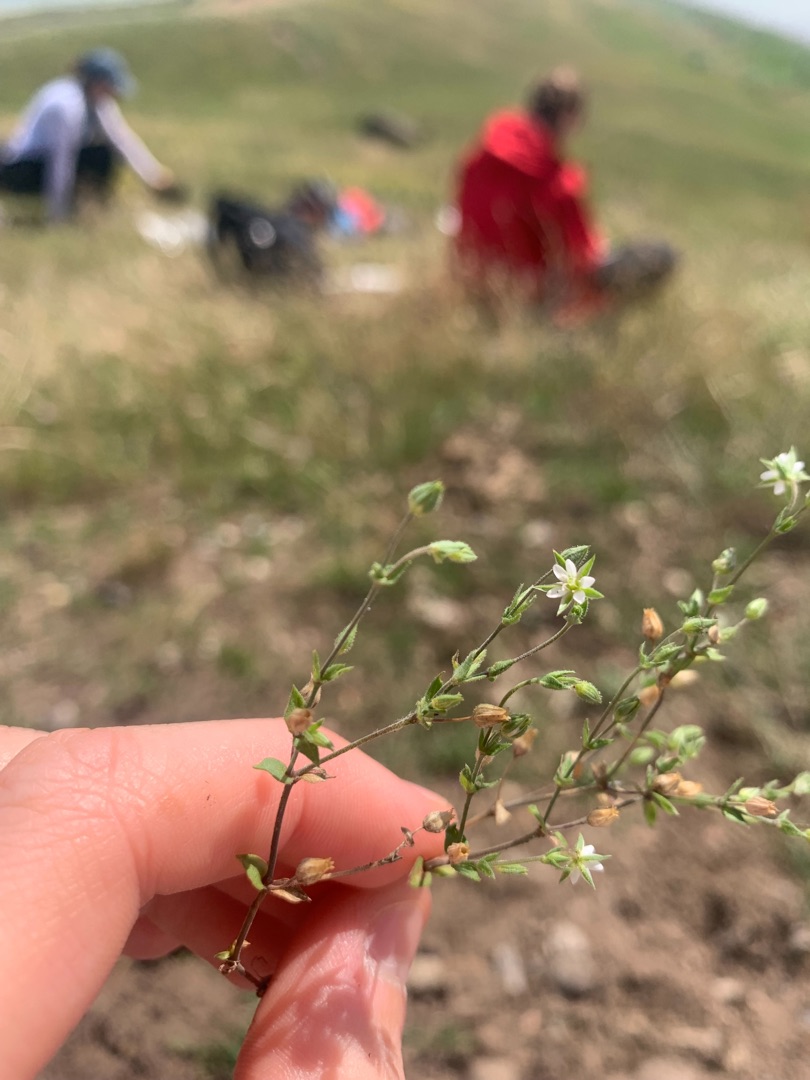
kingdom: Plantae
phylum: Tracheophyta
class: Magnoliopsida
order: Caryophyllales
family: Caryophyllaceae
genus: Arenaria
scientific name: Arenaria serpyllifolia
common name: Almindelig markarve
